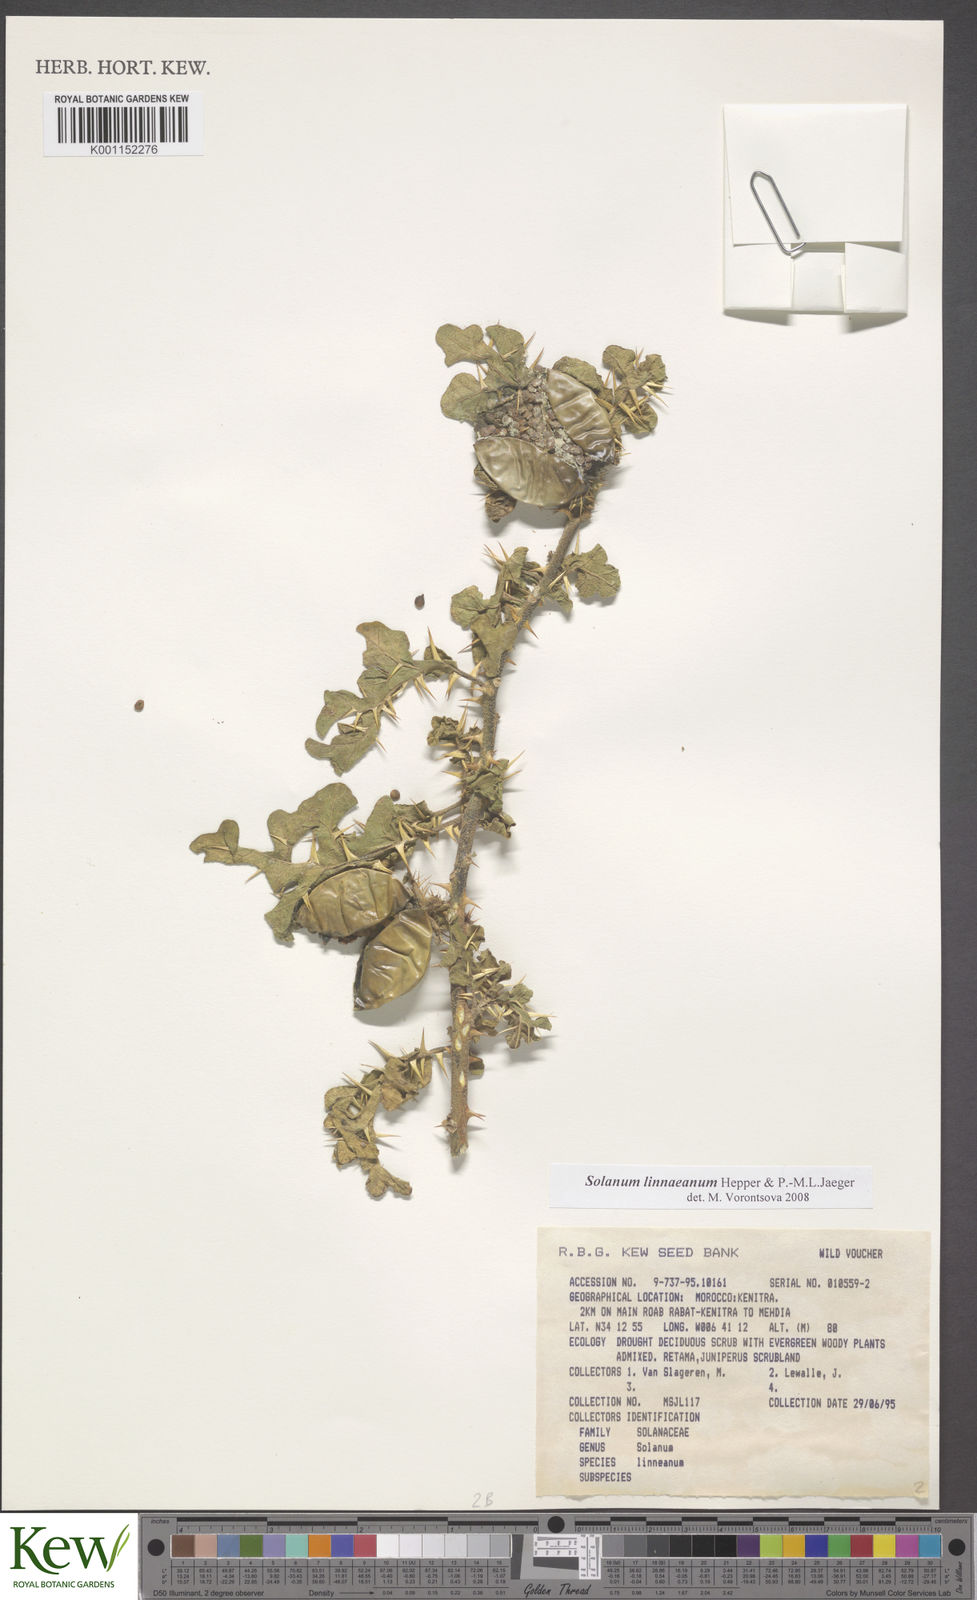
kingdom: Plantae
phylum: Tracheophyta
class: Magnoliopsida
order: Solanales
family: Solanaceae
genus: Solanum
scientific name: Solanum linnaeanum
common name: Nightshade
